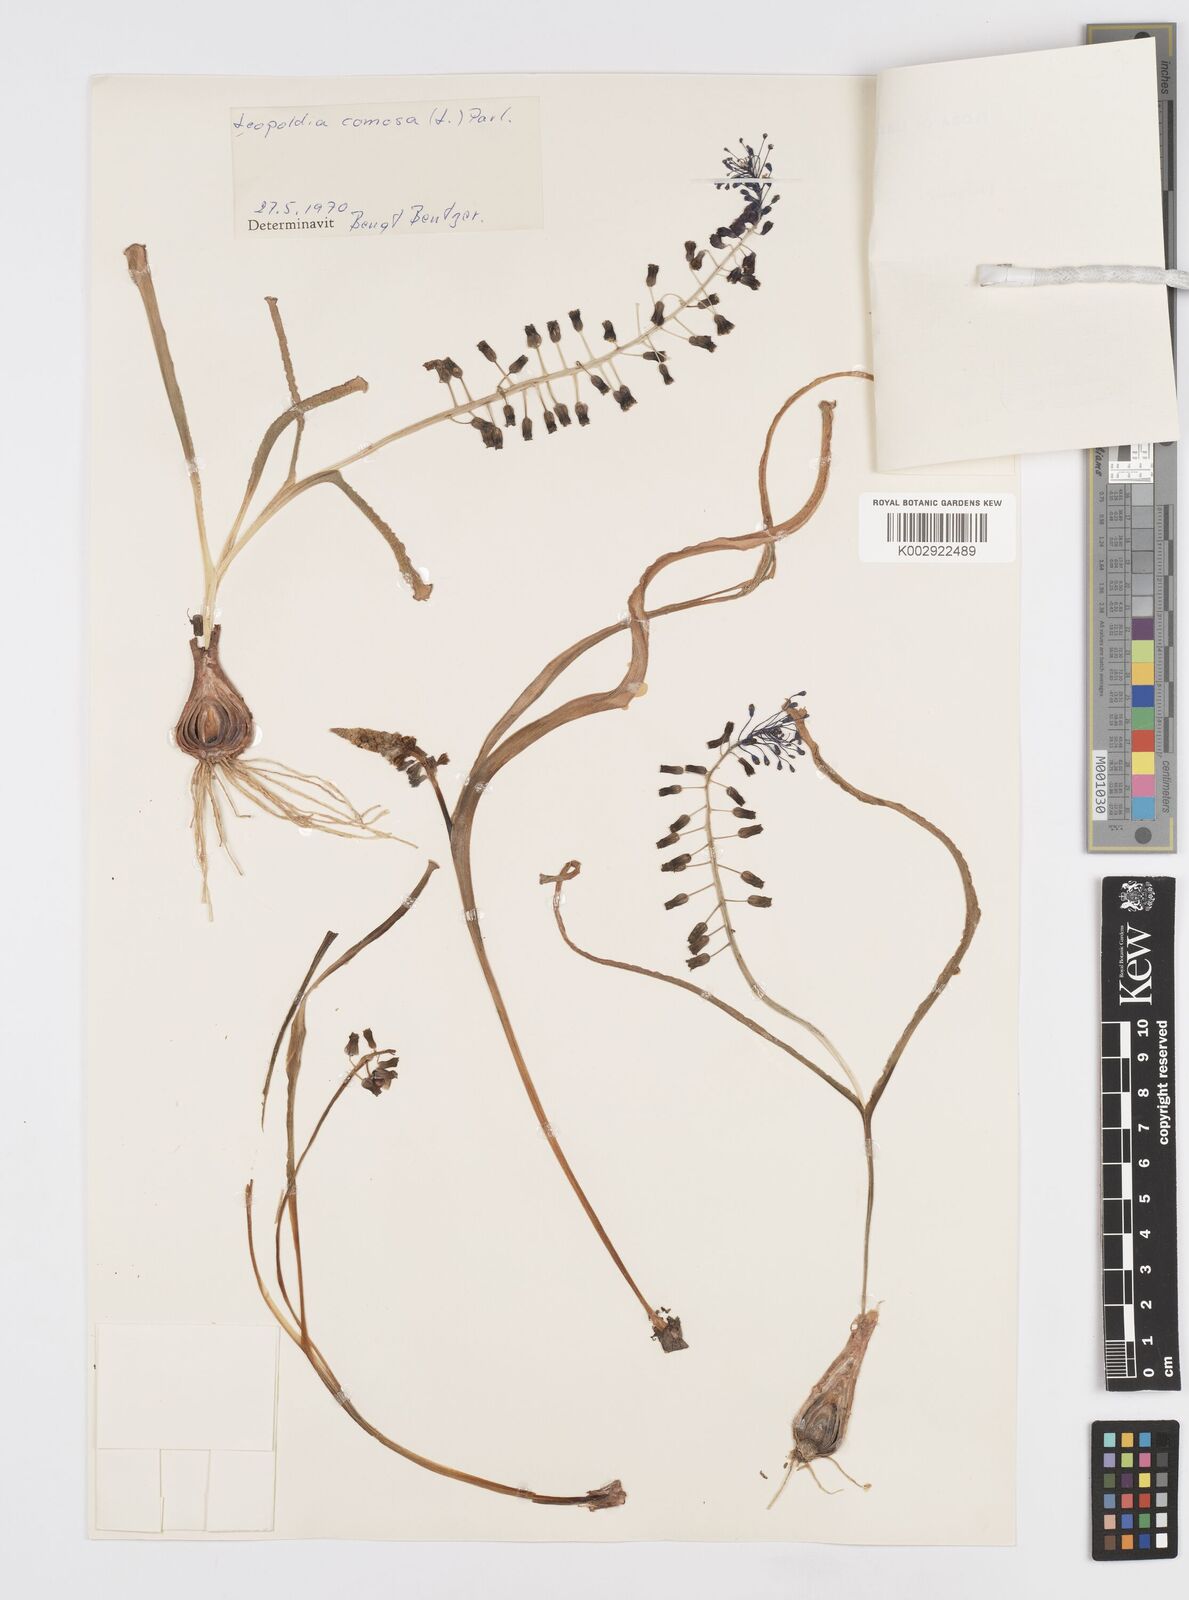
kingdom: Plantae
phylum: Tracheophyta
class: Liliopsida
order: Asparagales
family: Asparagaceae
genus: Muscari
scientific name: Muscari comosum
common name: Tassel hyacinth
